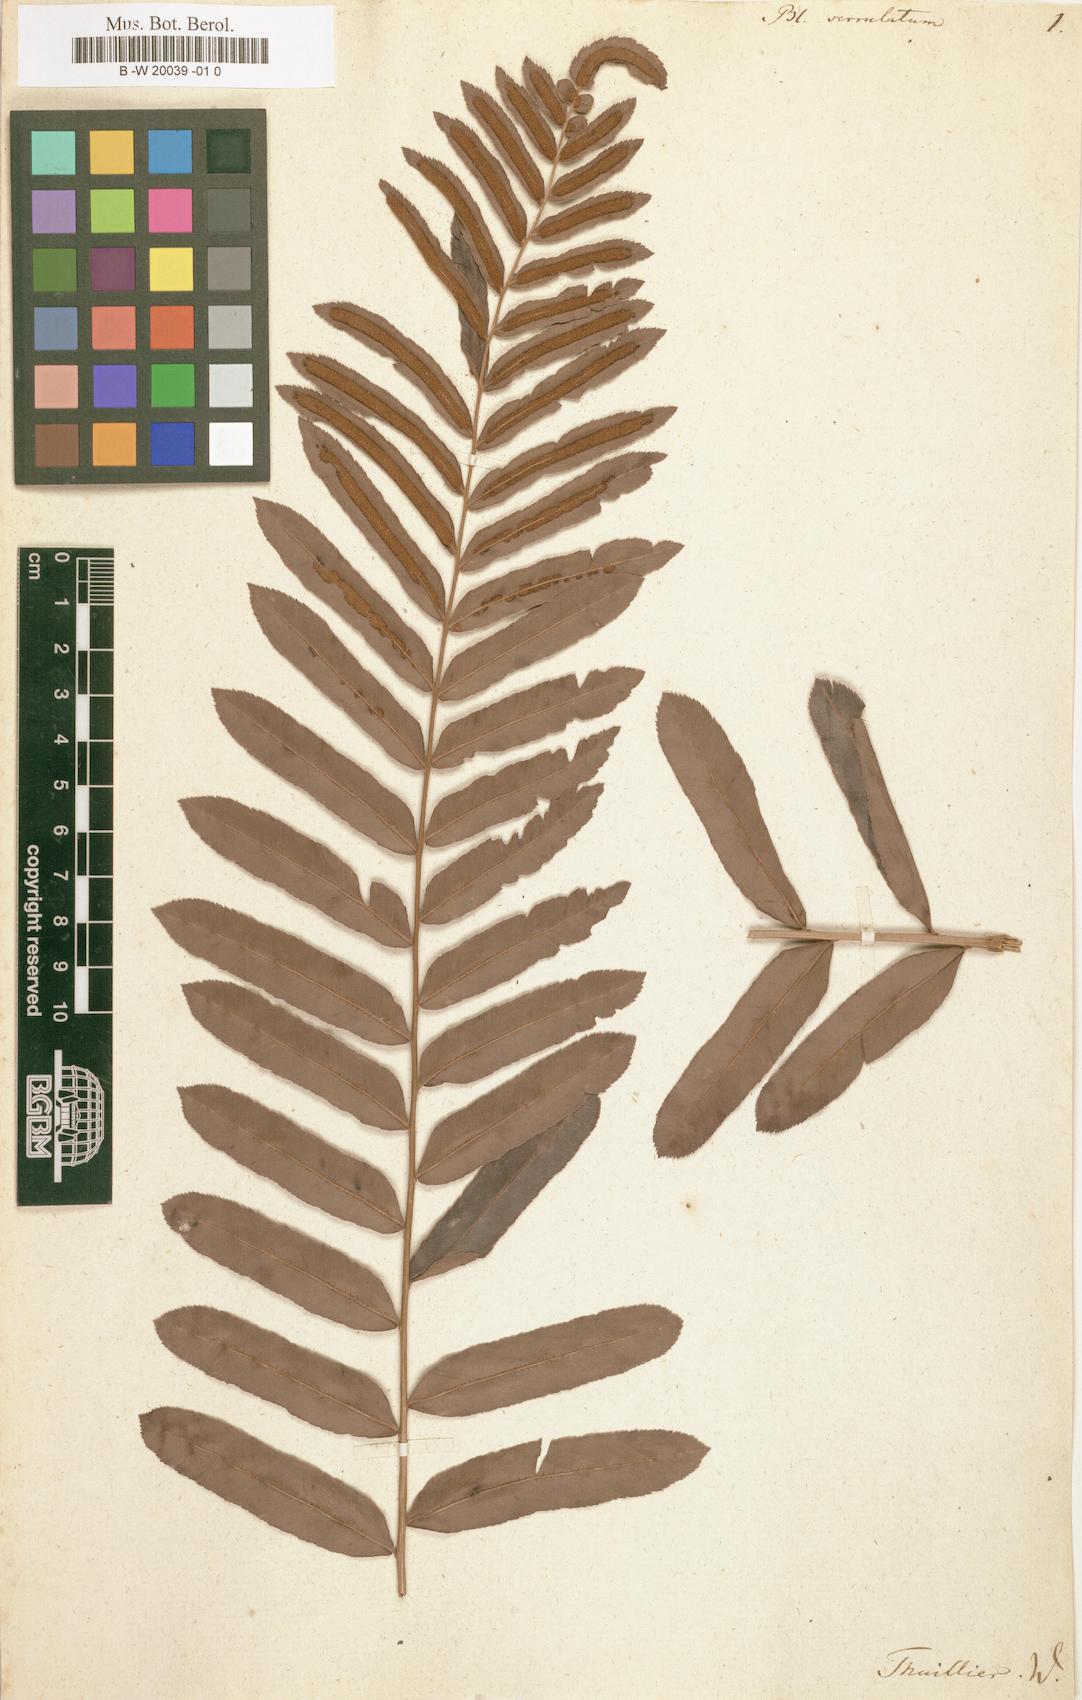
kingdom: Plantae
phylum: Tracheophyta
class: Polypodiopsida
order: Polypodiales
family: Blechnaceae
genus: Telmatoblechnum
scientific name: Telmatoblechnum serrulatum
